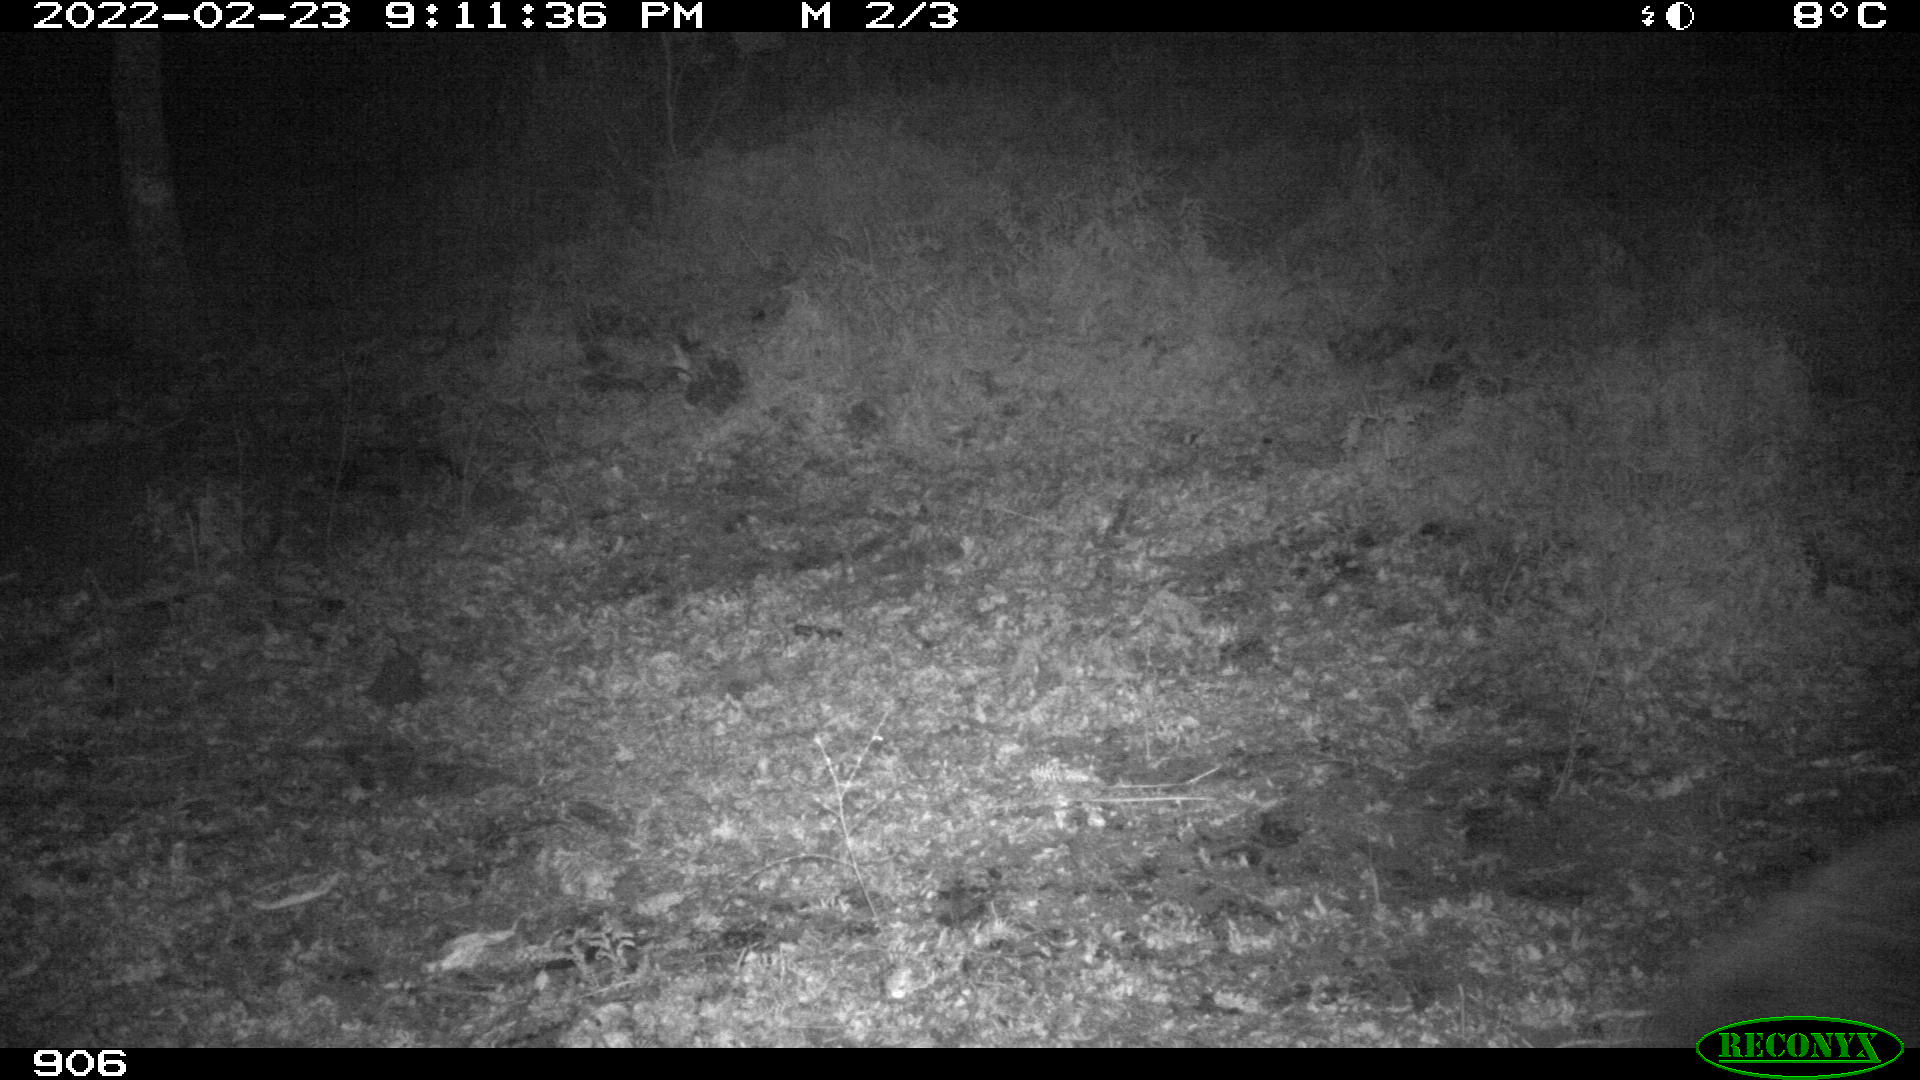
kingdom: Animalia
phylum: Chordata
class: Mammalia
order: Artiodactyla
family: Suidae
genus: Sus
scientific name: Sus scrofa
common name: Wild boar
